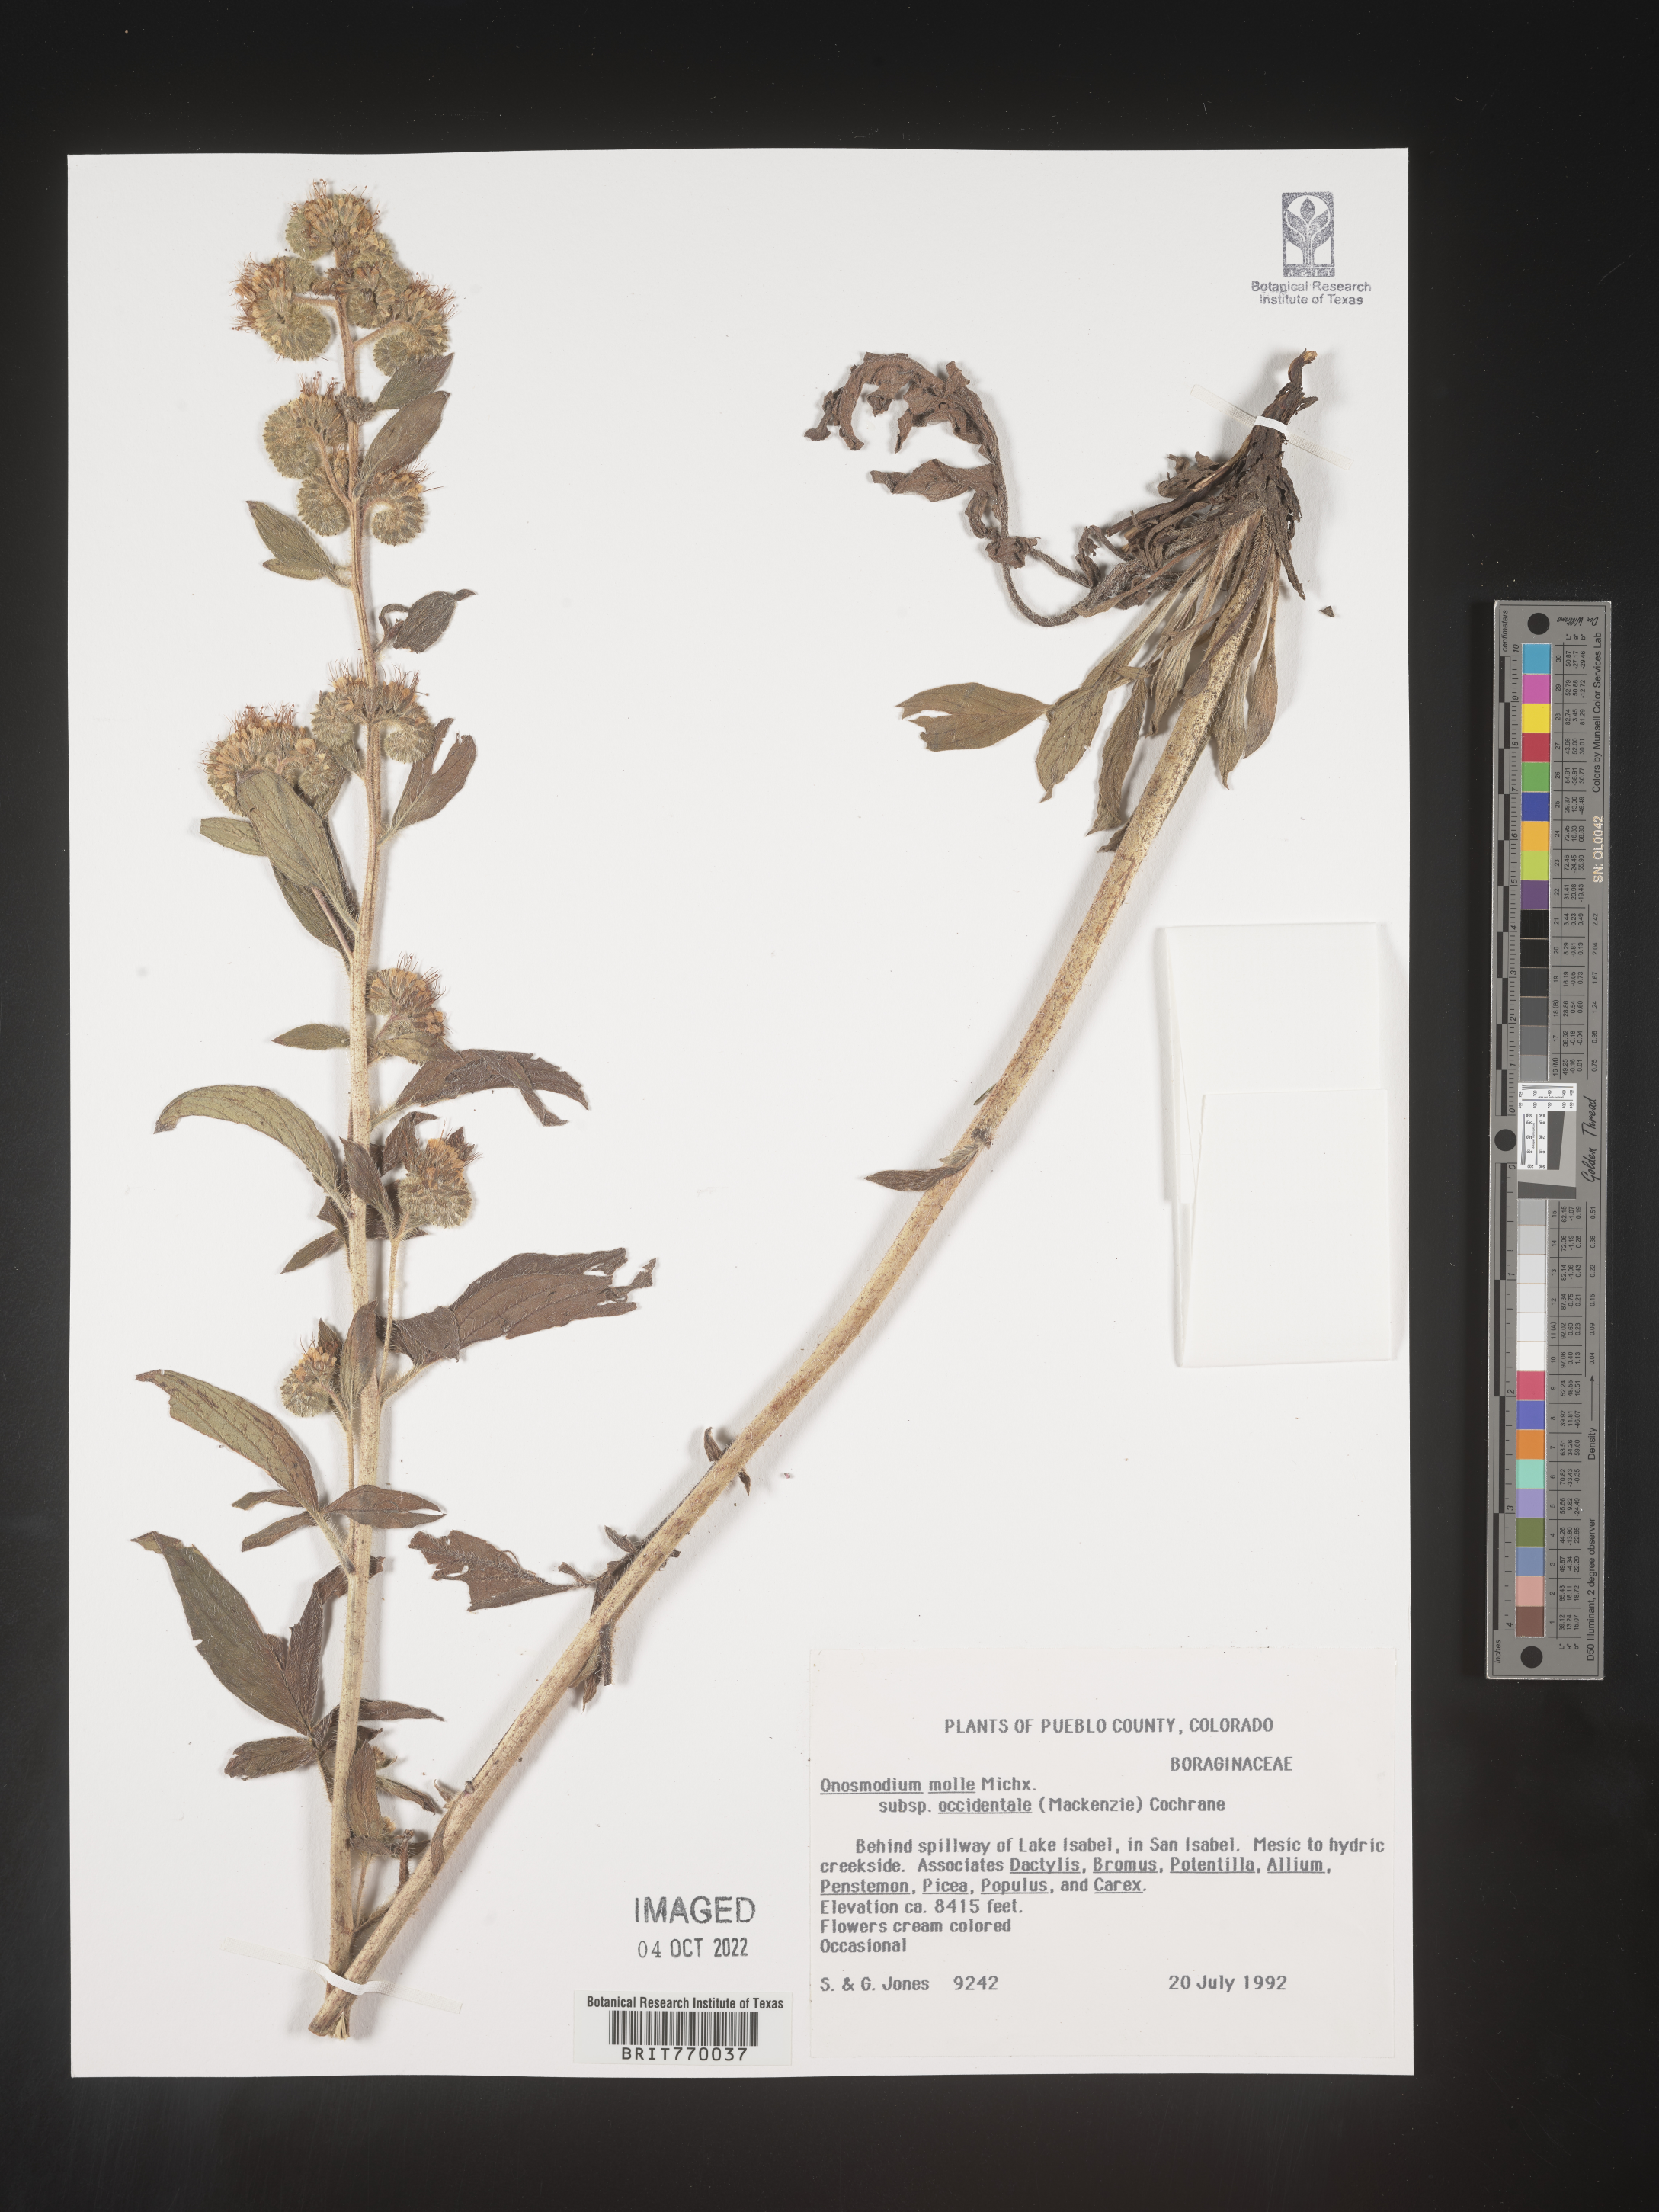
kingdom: Plantae
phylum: Tracheophyta
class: Magnoliopsida
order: Boraginales
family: Boraginaceae
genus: Lithospermum
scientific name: Lithospermum occidentale
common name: Western false gromwell
